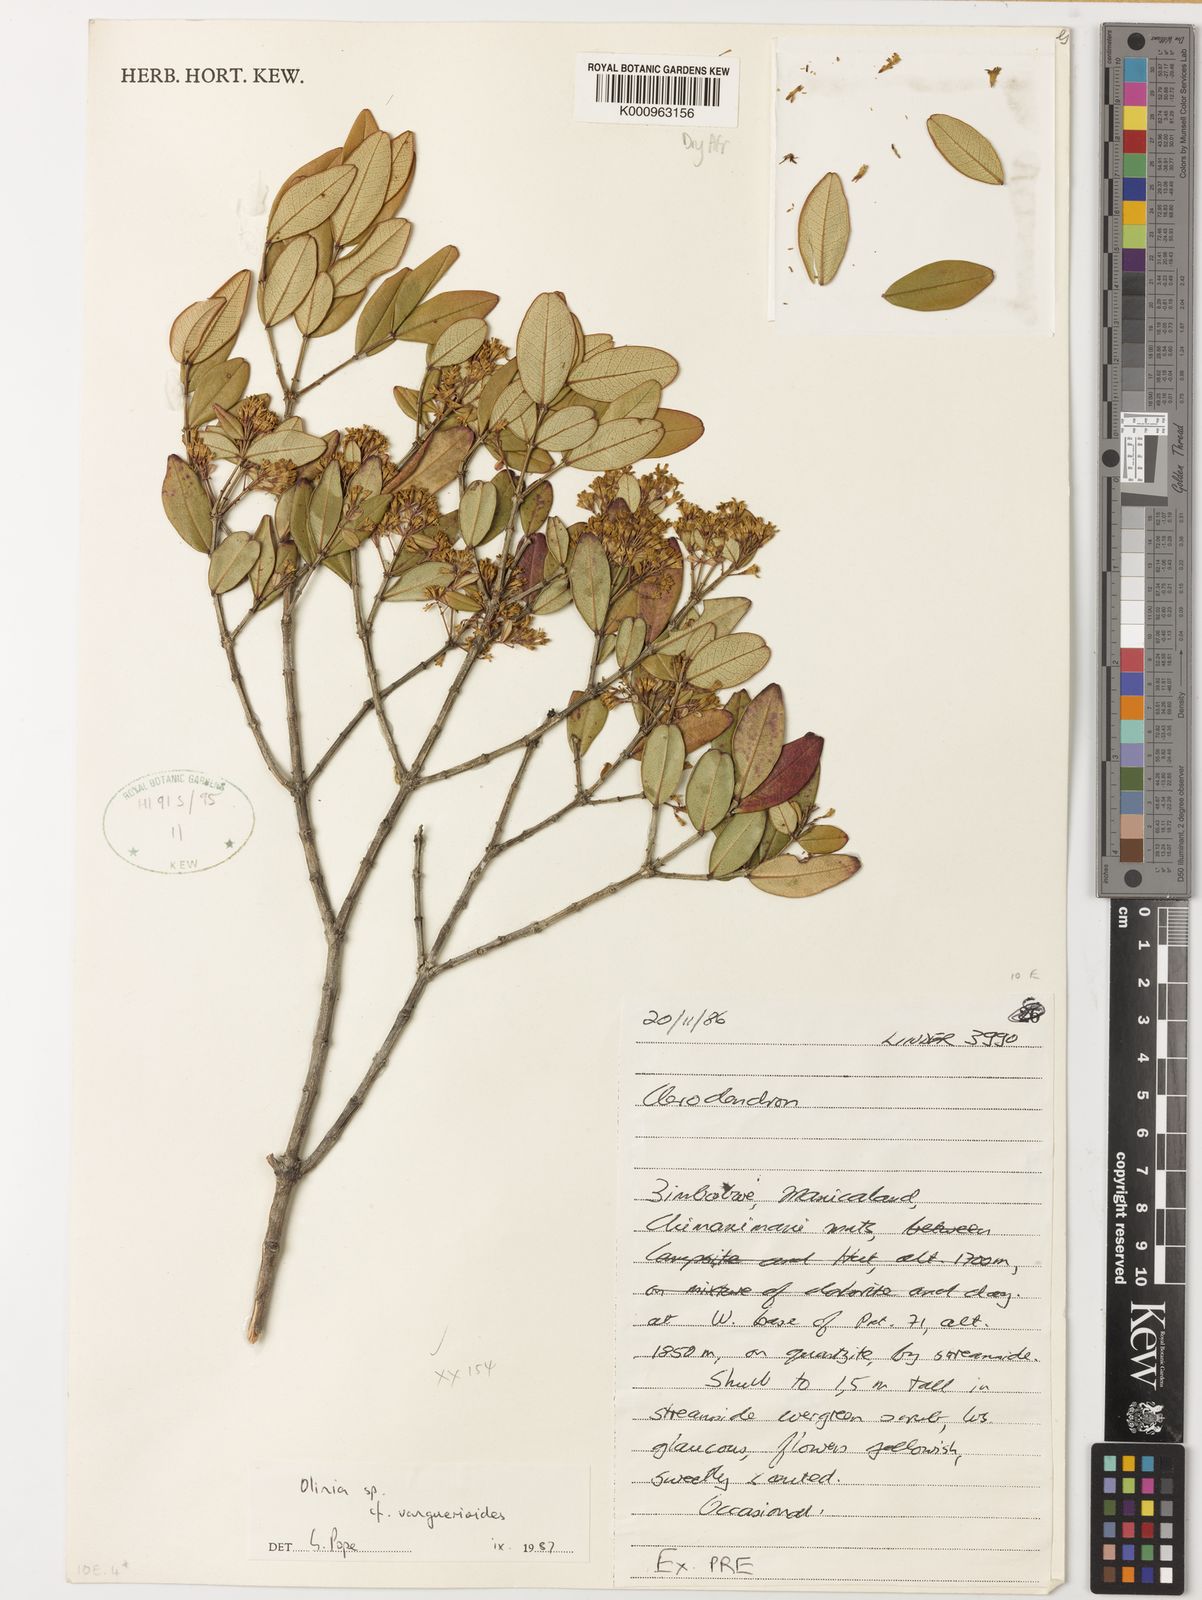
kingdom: Plantae
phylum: Tracheophyta
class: Magnoliopsida
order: Myrtales
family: Penaeaceae
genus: Olinia
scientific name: Olinia chimanimani
